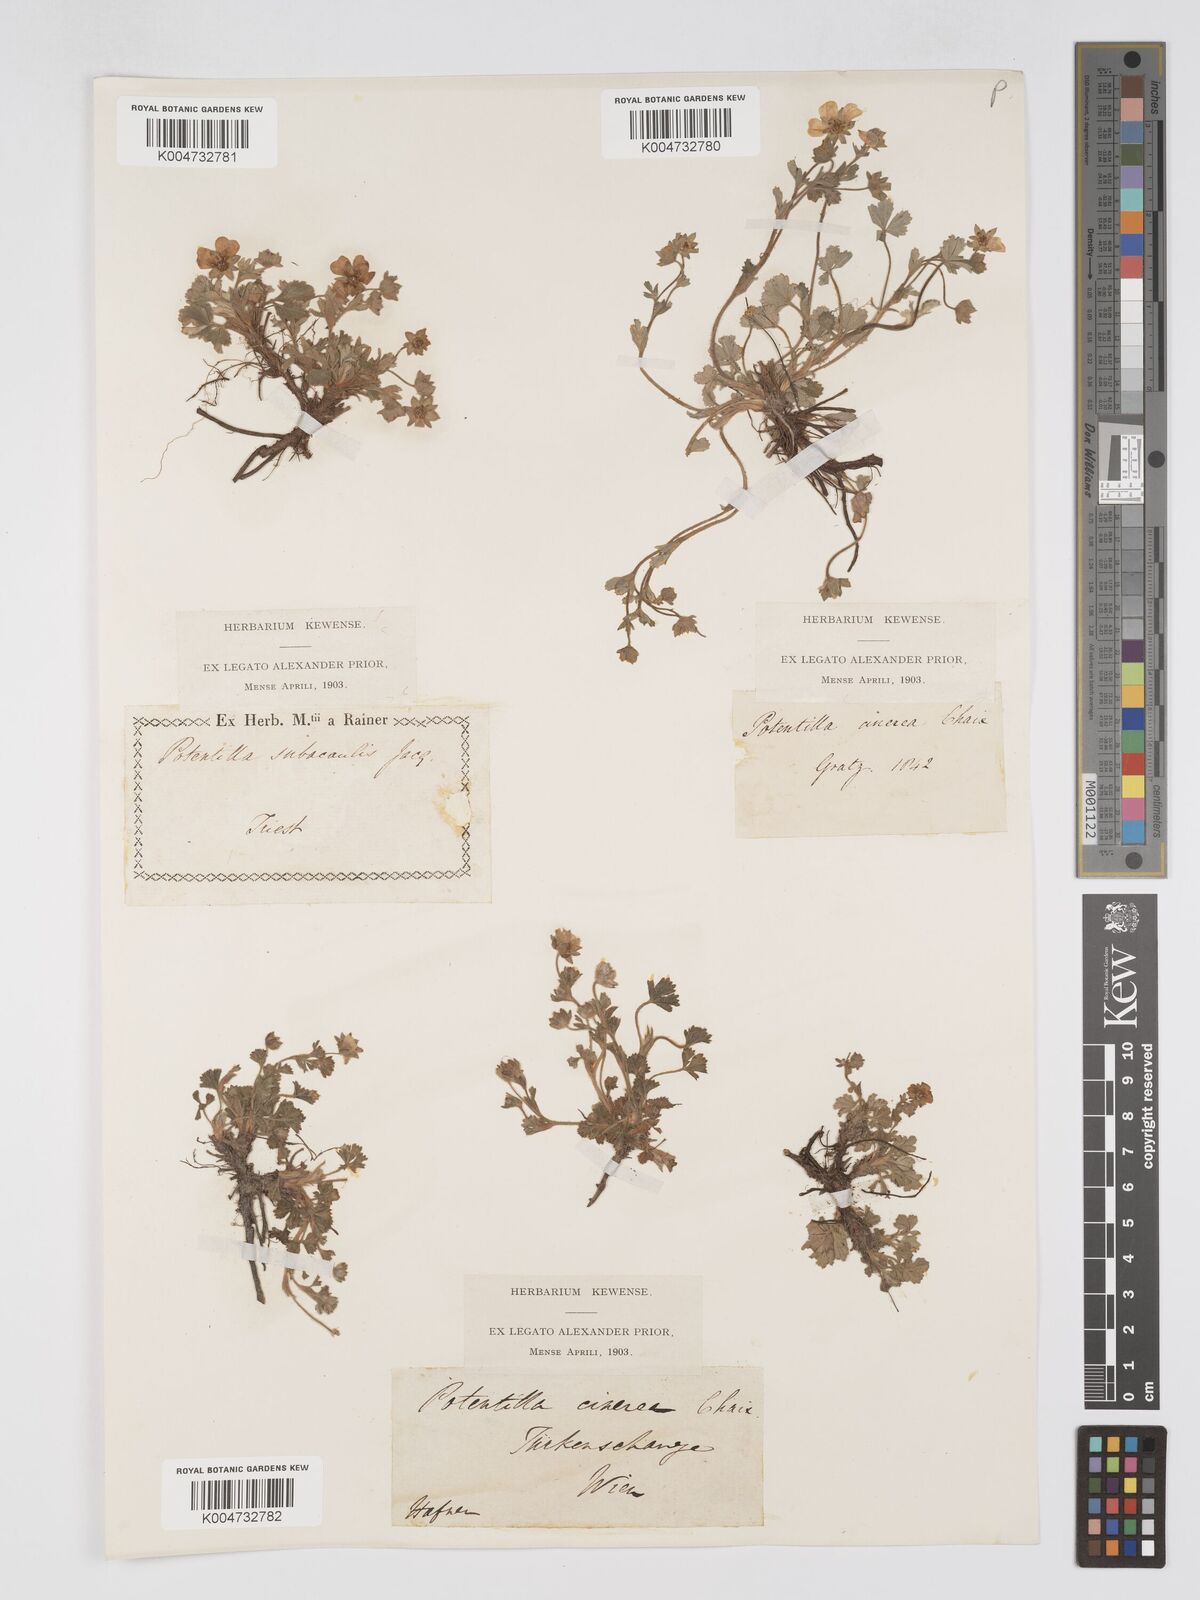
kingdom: Plantae
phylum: Tracheophyta
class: Magnoliopsida
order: Rosales
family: Rosaceae
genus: Potentilla
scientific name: Potentilla
